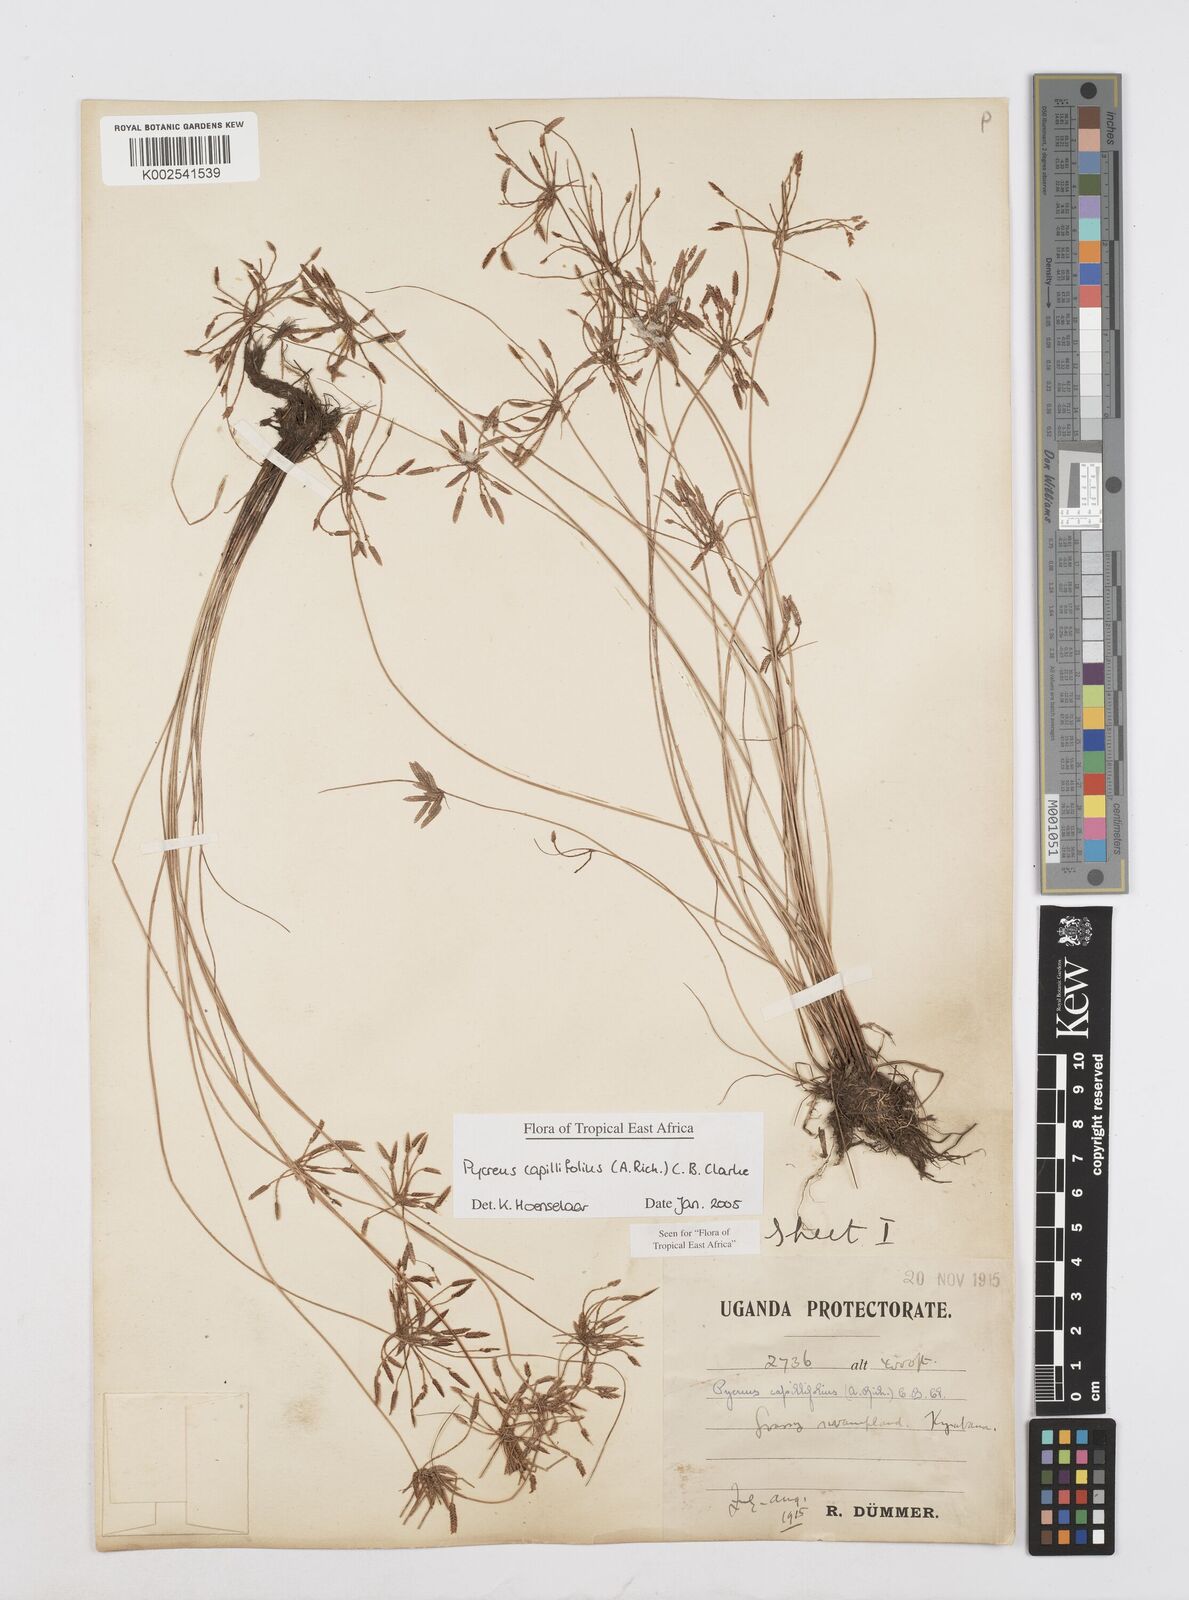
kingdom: Plantae
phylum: Tracheophyta
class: Liliopsida
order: Poales
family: Cyperaceae
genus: Cyperus
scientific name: Cyperus capillifolius
